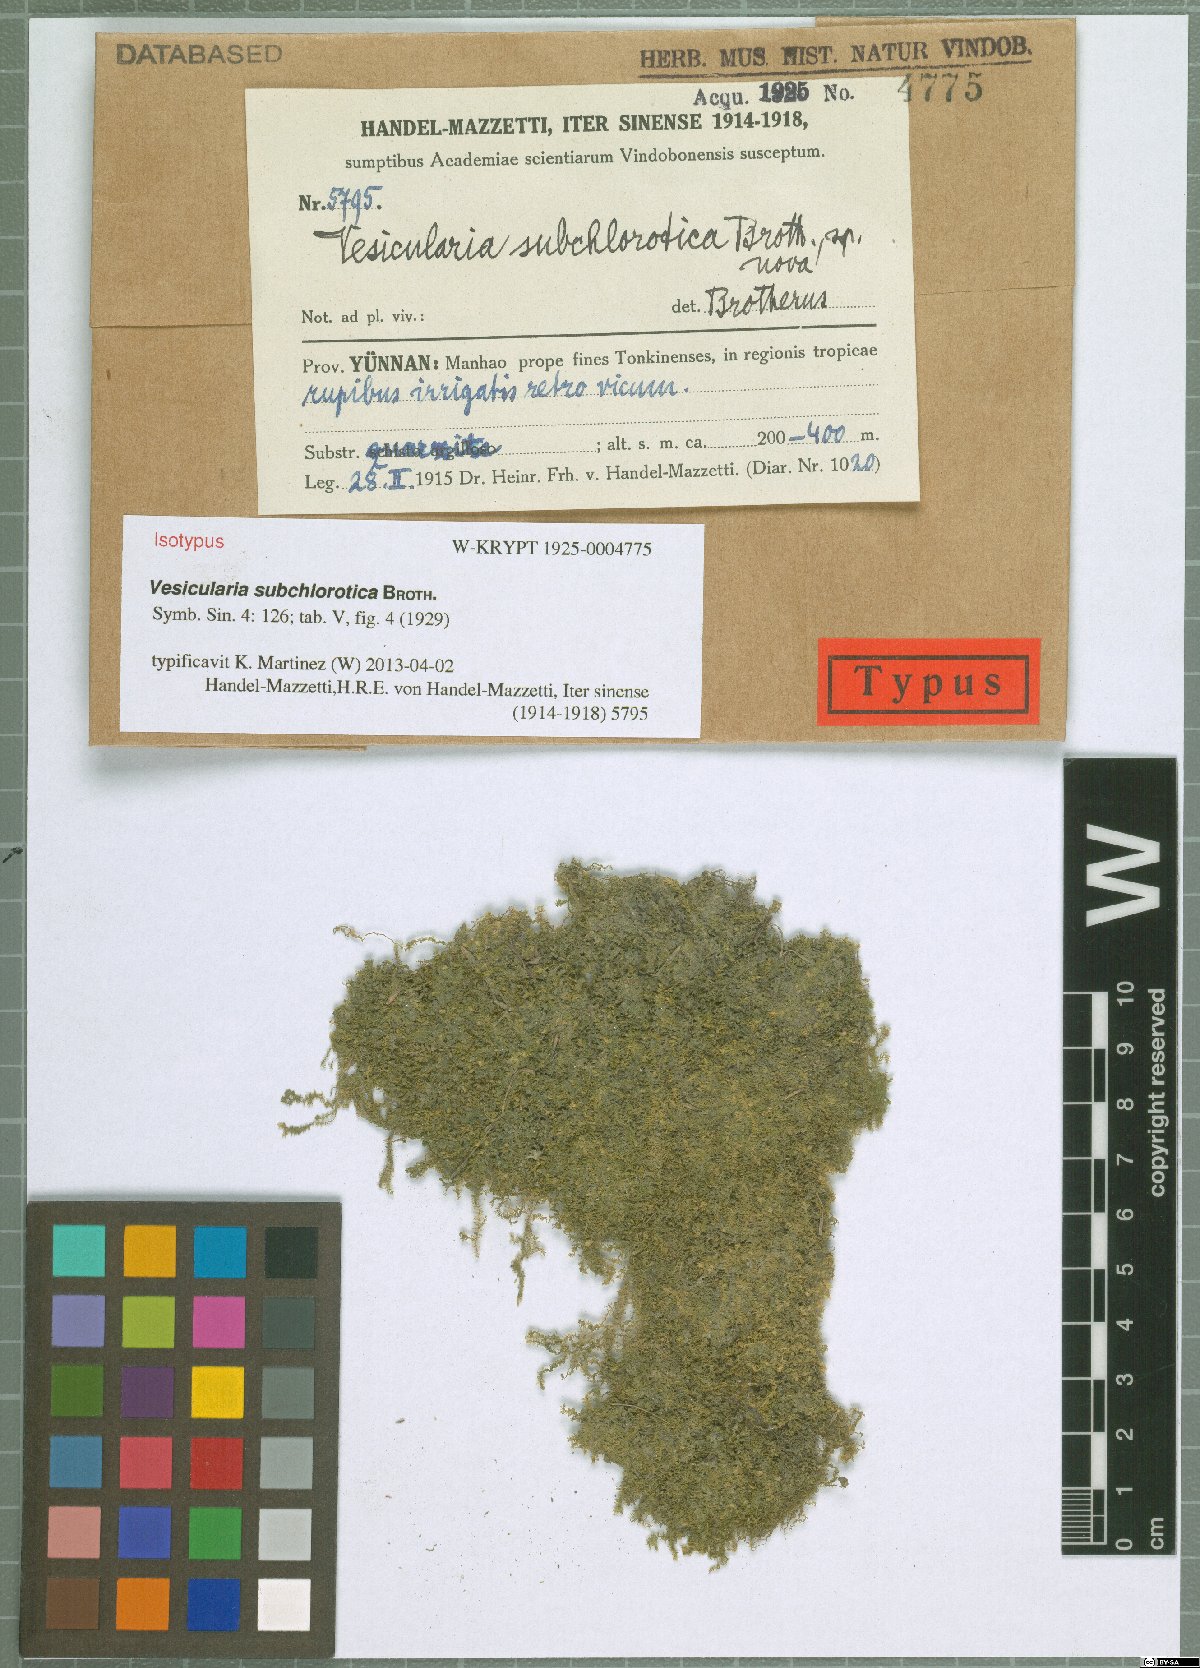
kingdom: Plantae
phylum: Bryophyta
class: Bryopsida
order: Hypnales
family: Hypnaceae
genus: Vesicularia
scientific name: Vesicularia subchlorotica
